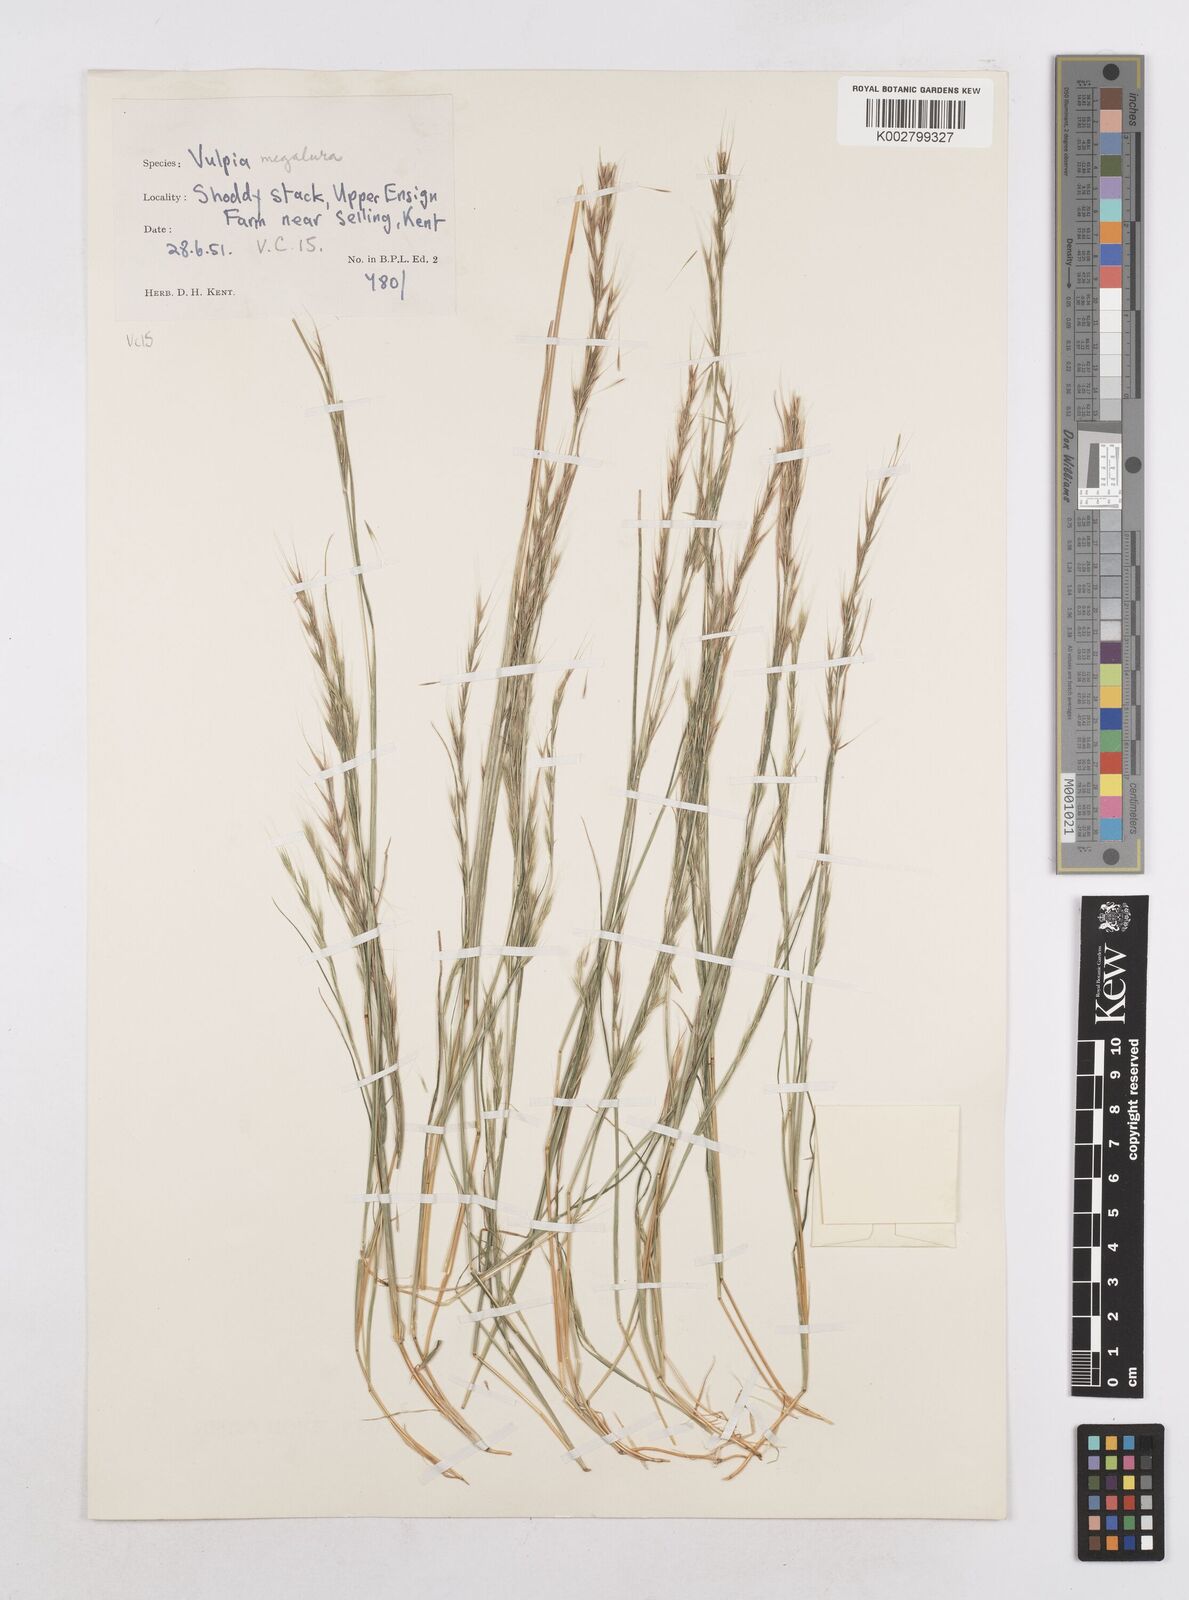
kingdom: Plantae
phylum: Tracheophyta
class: Liliopsida
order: Poales
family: Poaceae
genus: Festuca
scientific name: Festuca myuros
